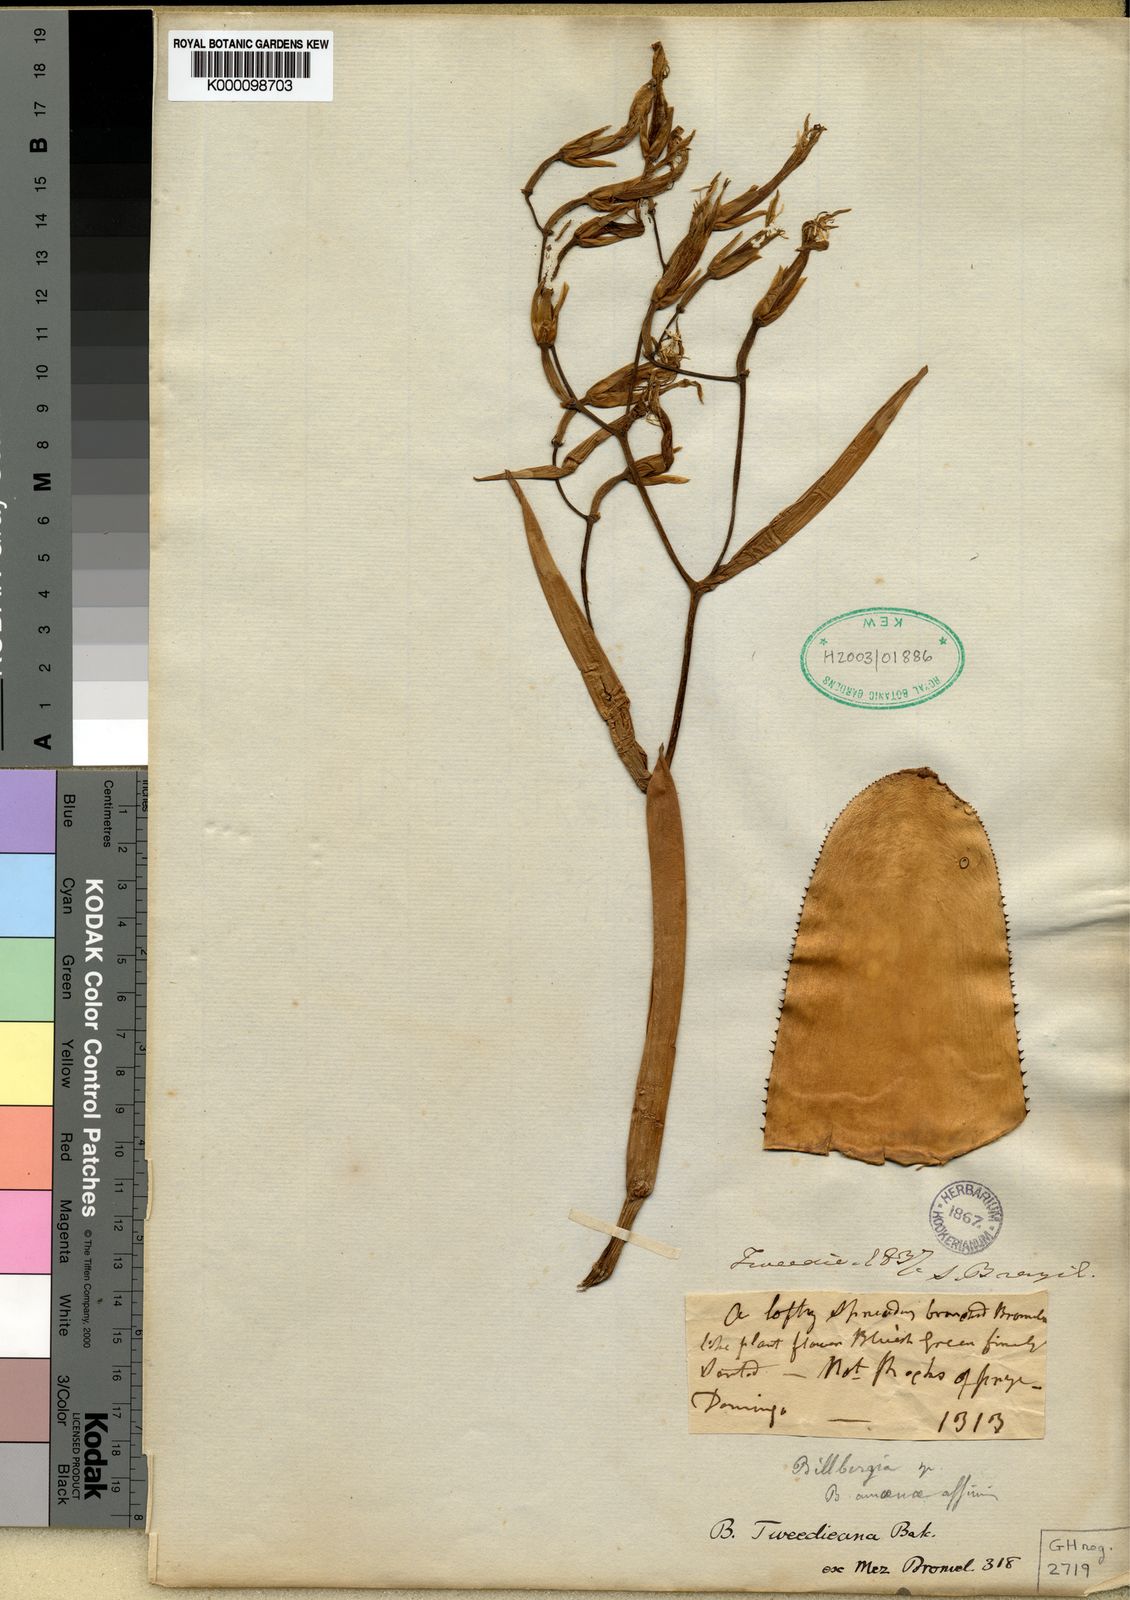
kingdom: Plantae
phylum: Tracheophyta
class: Liliopsida
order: Poales
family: Bromeliaceae
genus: Billbergia
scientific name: Billbergia tweedieana
